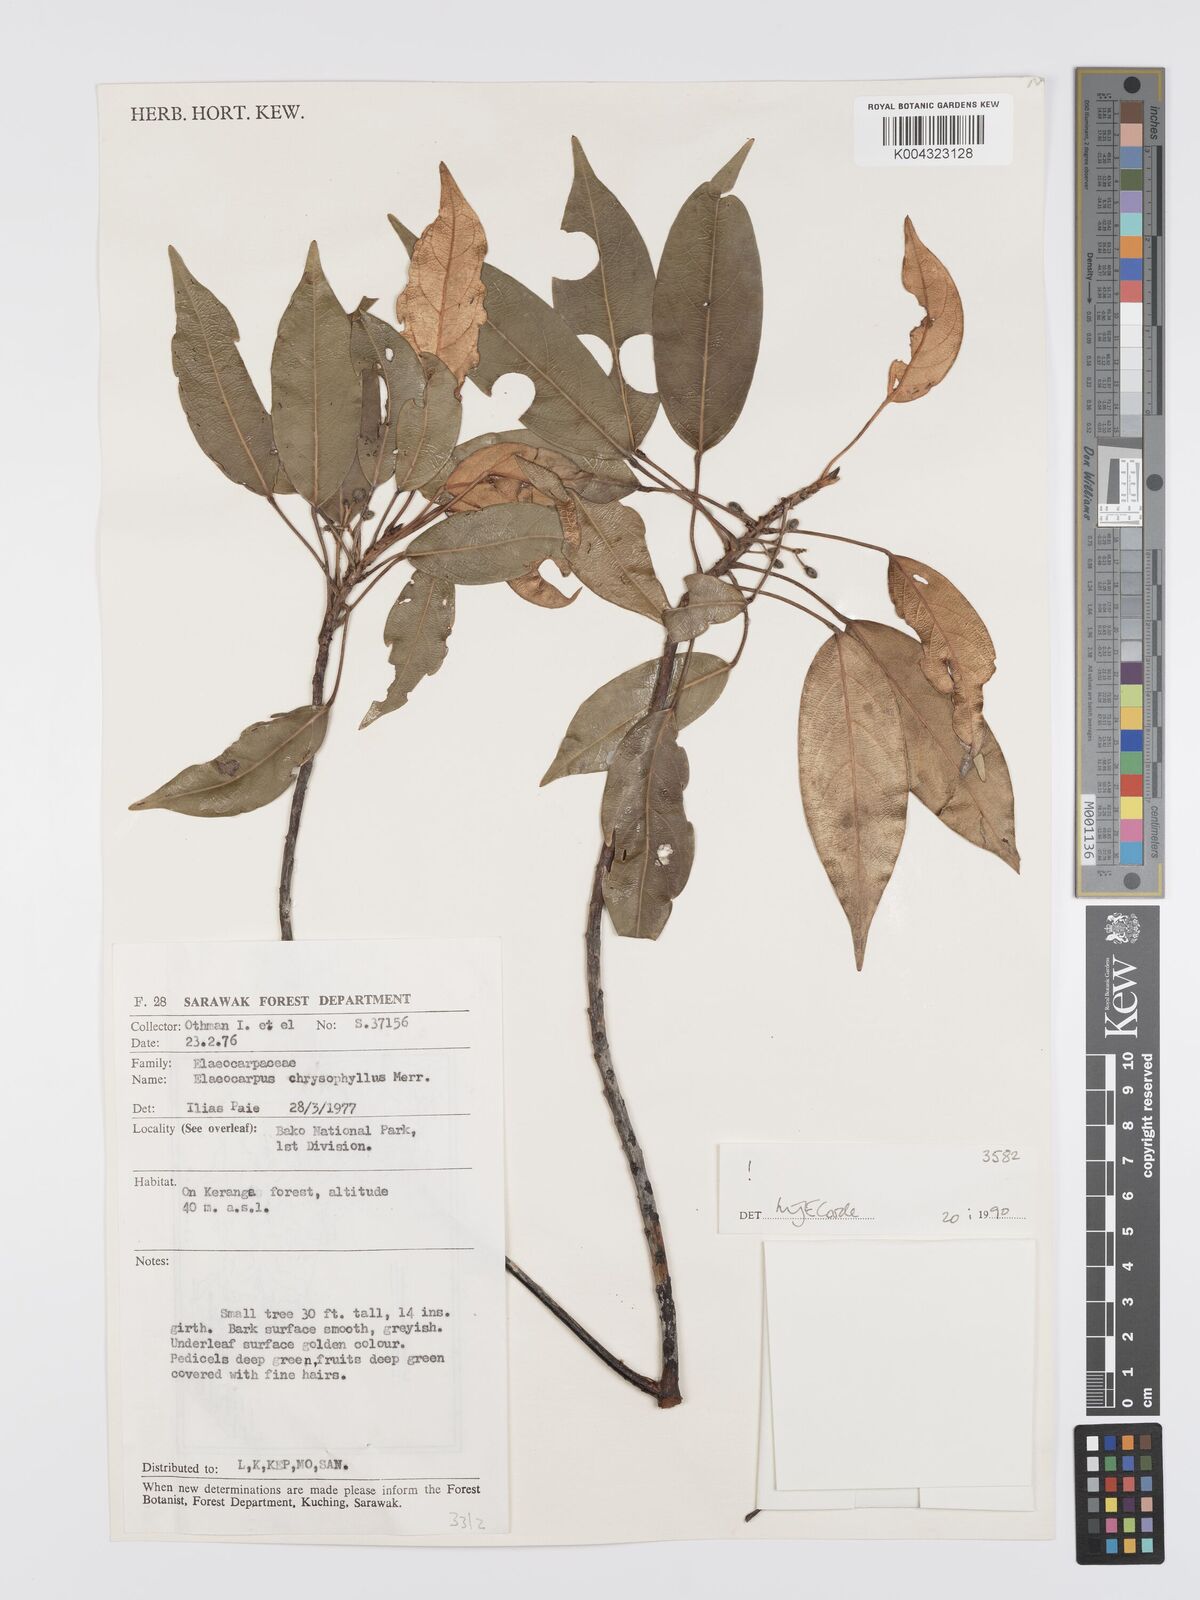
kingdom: Plantae
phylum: Tracheophyta
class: Magnoliopsida
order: Oxalidales
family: Elaeocarpaceae
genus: Elaeocarpus
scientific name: Elaeocarpus chrysophyllus
